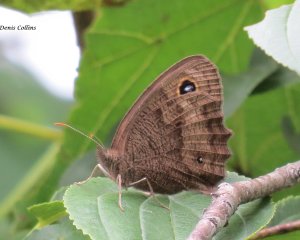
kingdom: Animalia
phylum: Arthropoda
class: Insecta
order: Lepidoptera
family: Nymphalidae
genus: Cercyonis
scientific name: Cercyonis pegala
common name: Common Wood-Nymph
